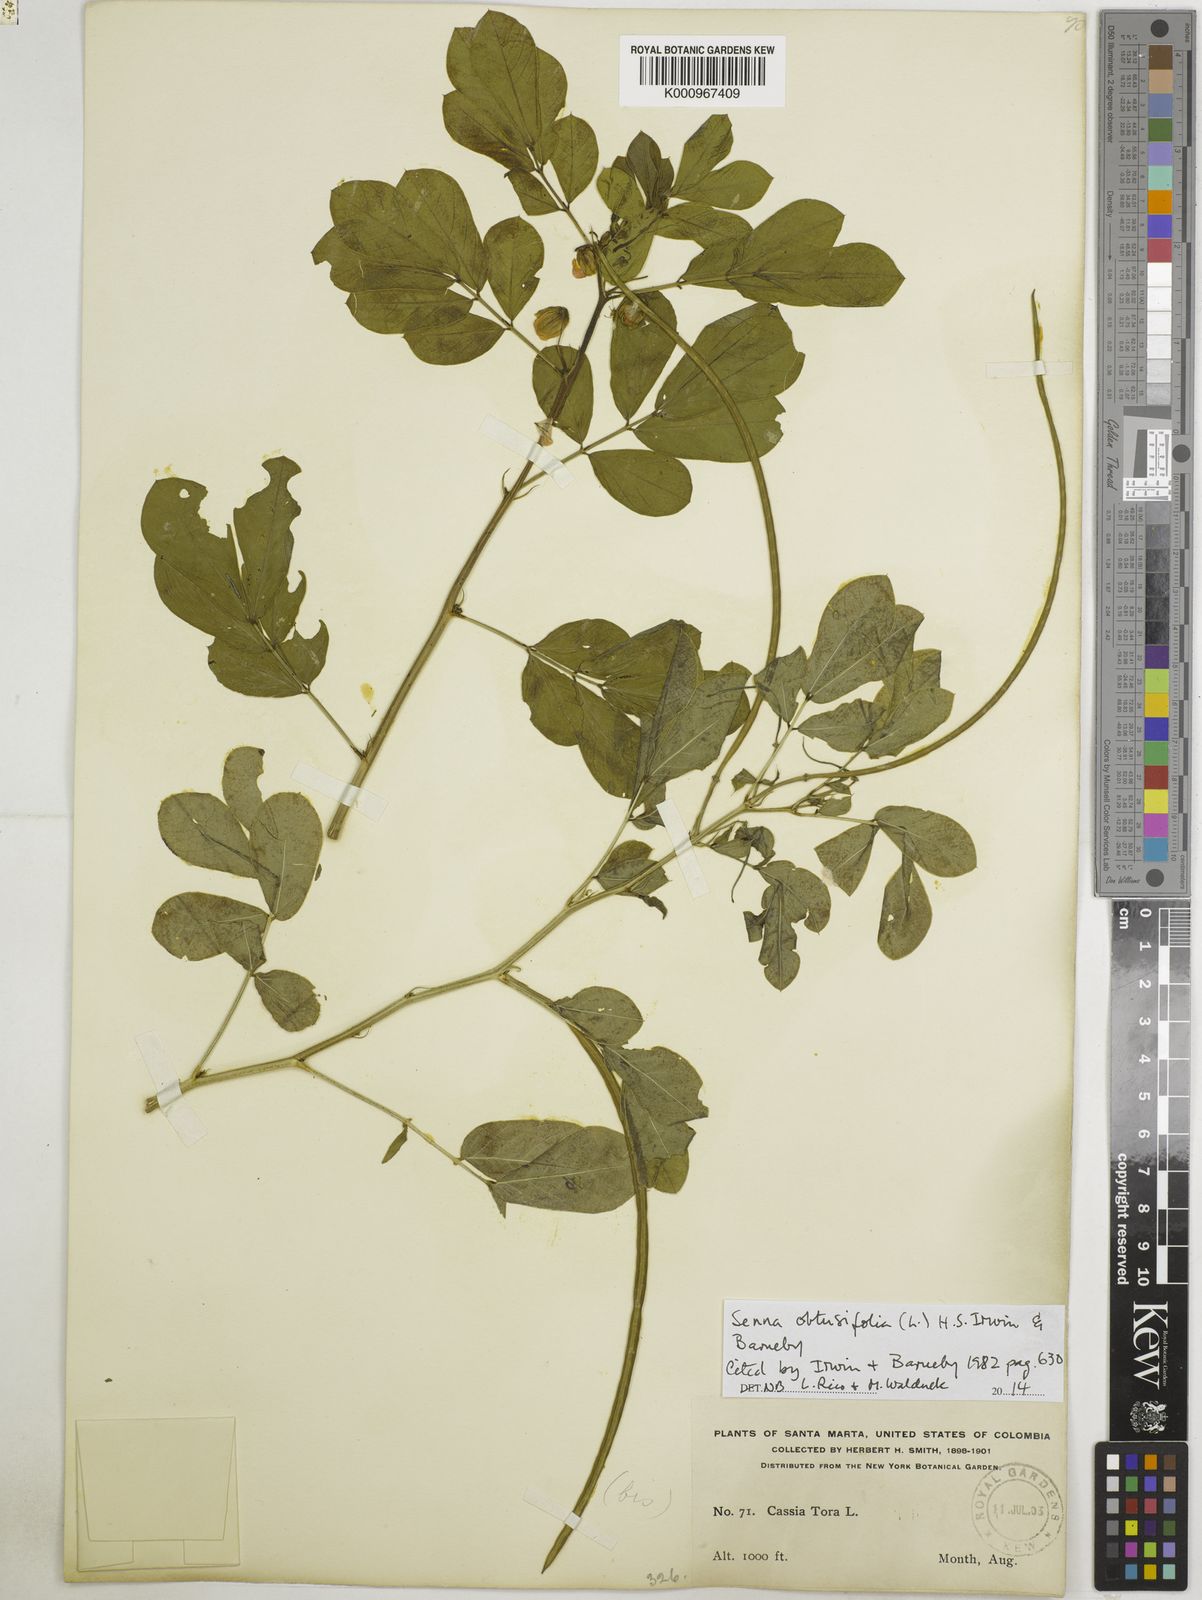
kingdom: Plantae
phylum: Tracheophyta
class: Magnoliopsida
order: Fabales
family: Fabaceae
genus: Senna
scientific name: Senna obtusifolia
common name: Java-bean
